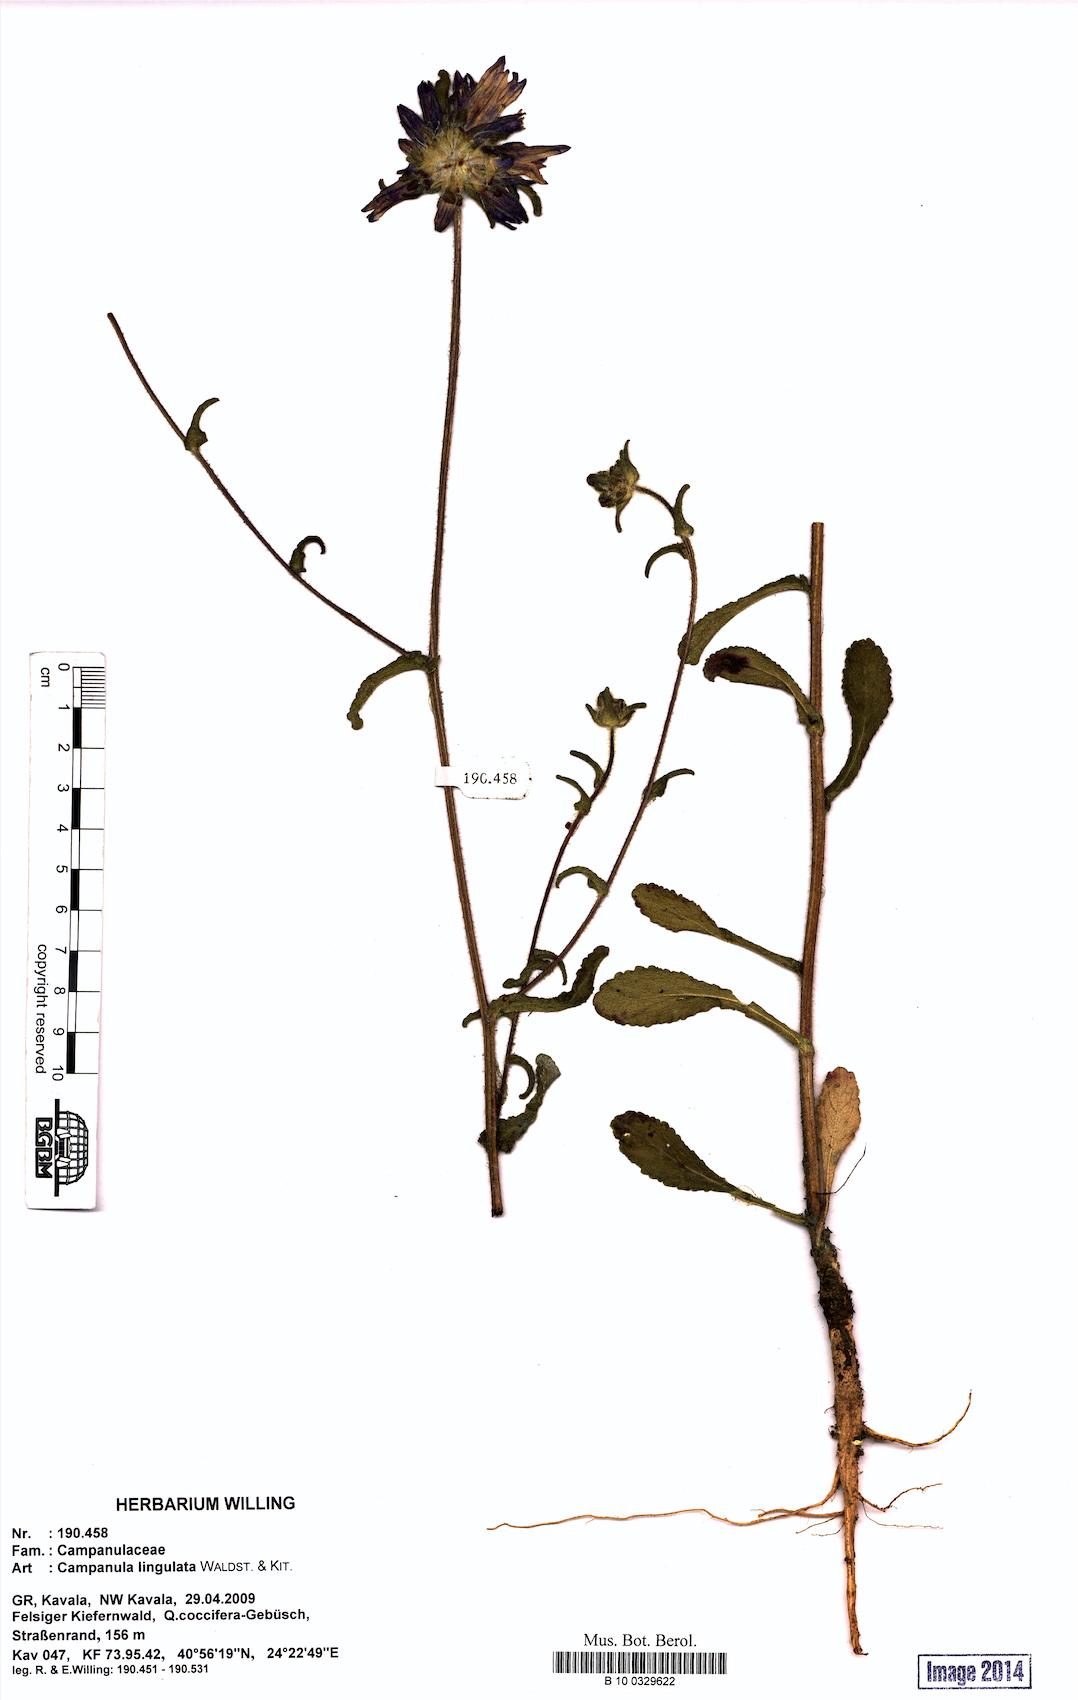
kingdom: Plantae
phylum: Tracheophyta
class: Magnoliopsida
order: Asterales
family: Campanulaceae
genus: Campanula
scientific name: Campanula lingulata
